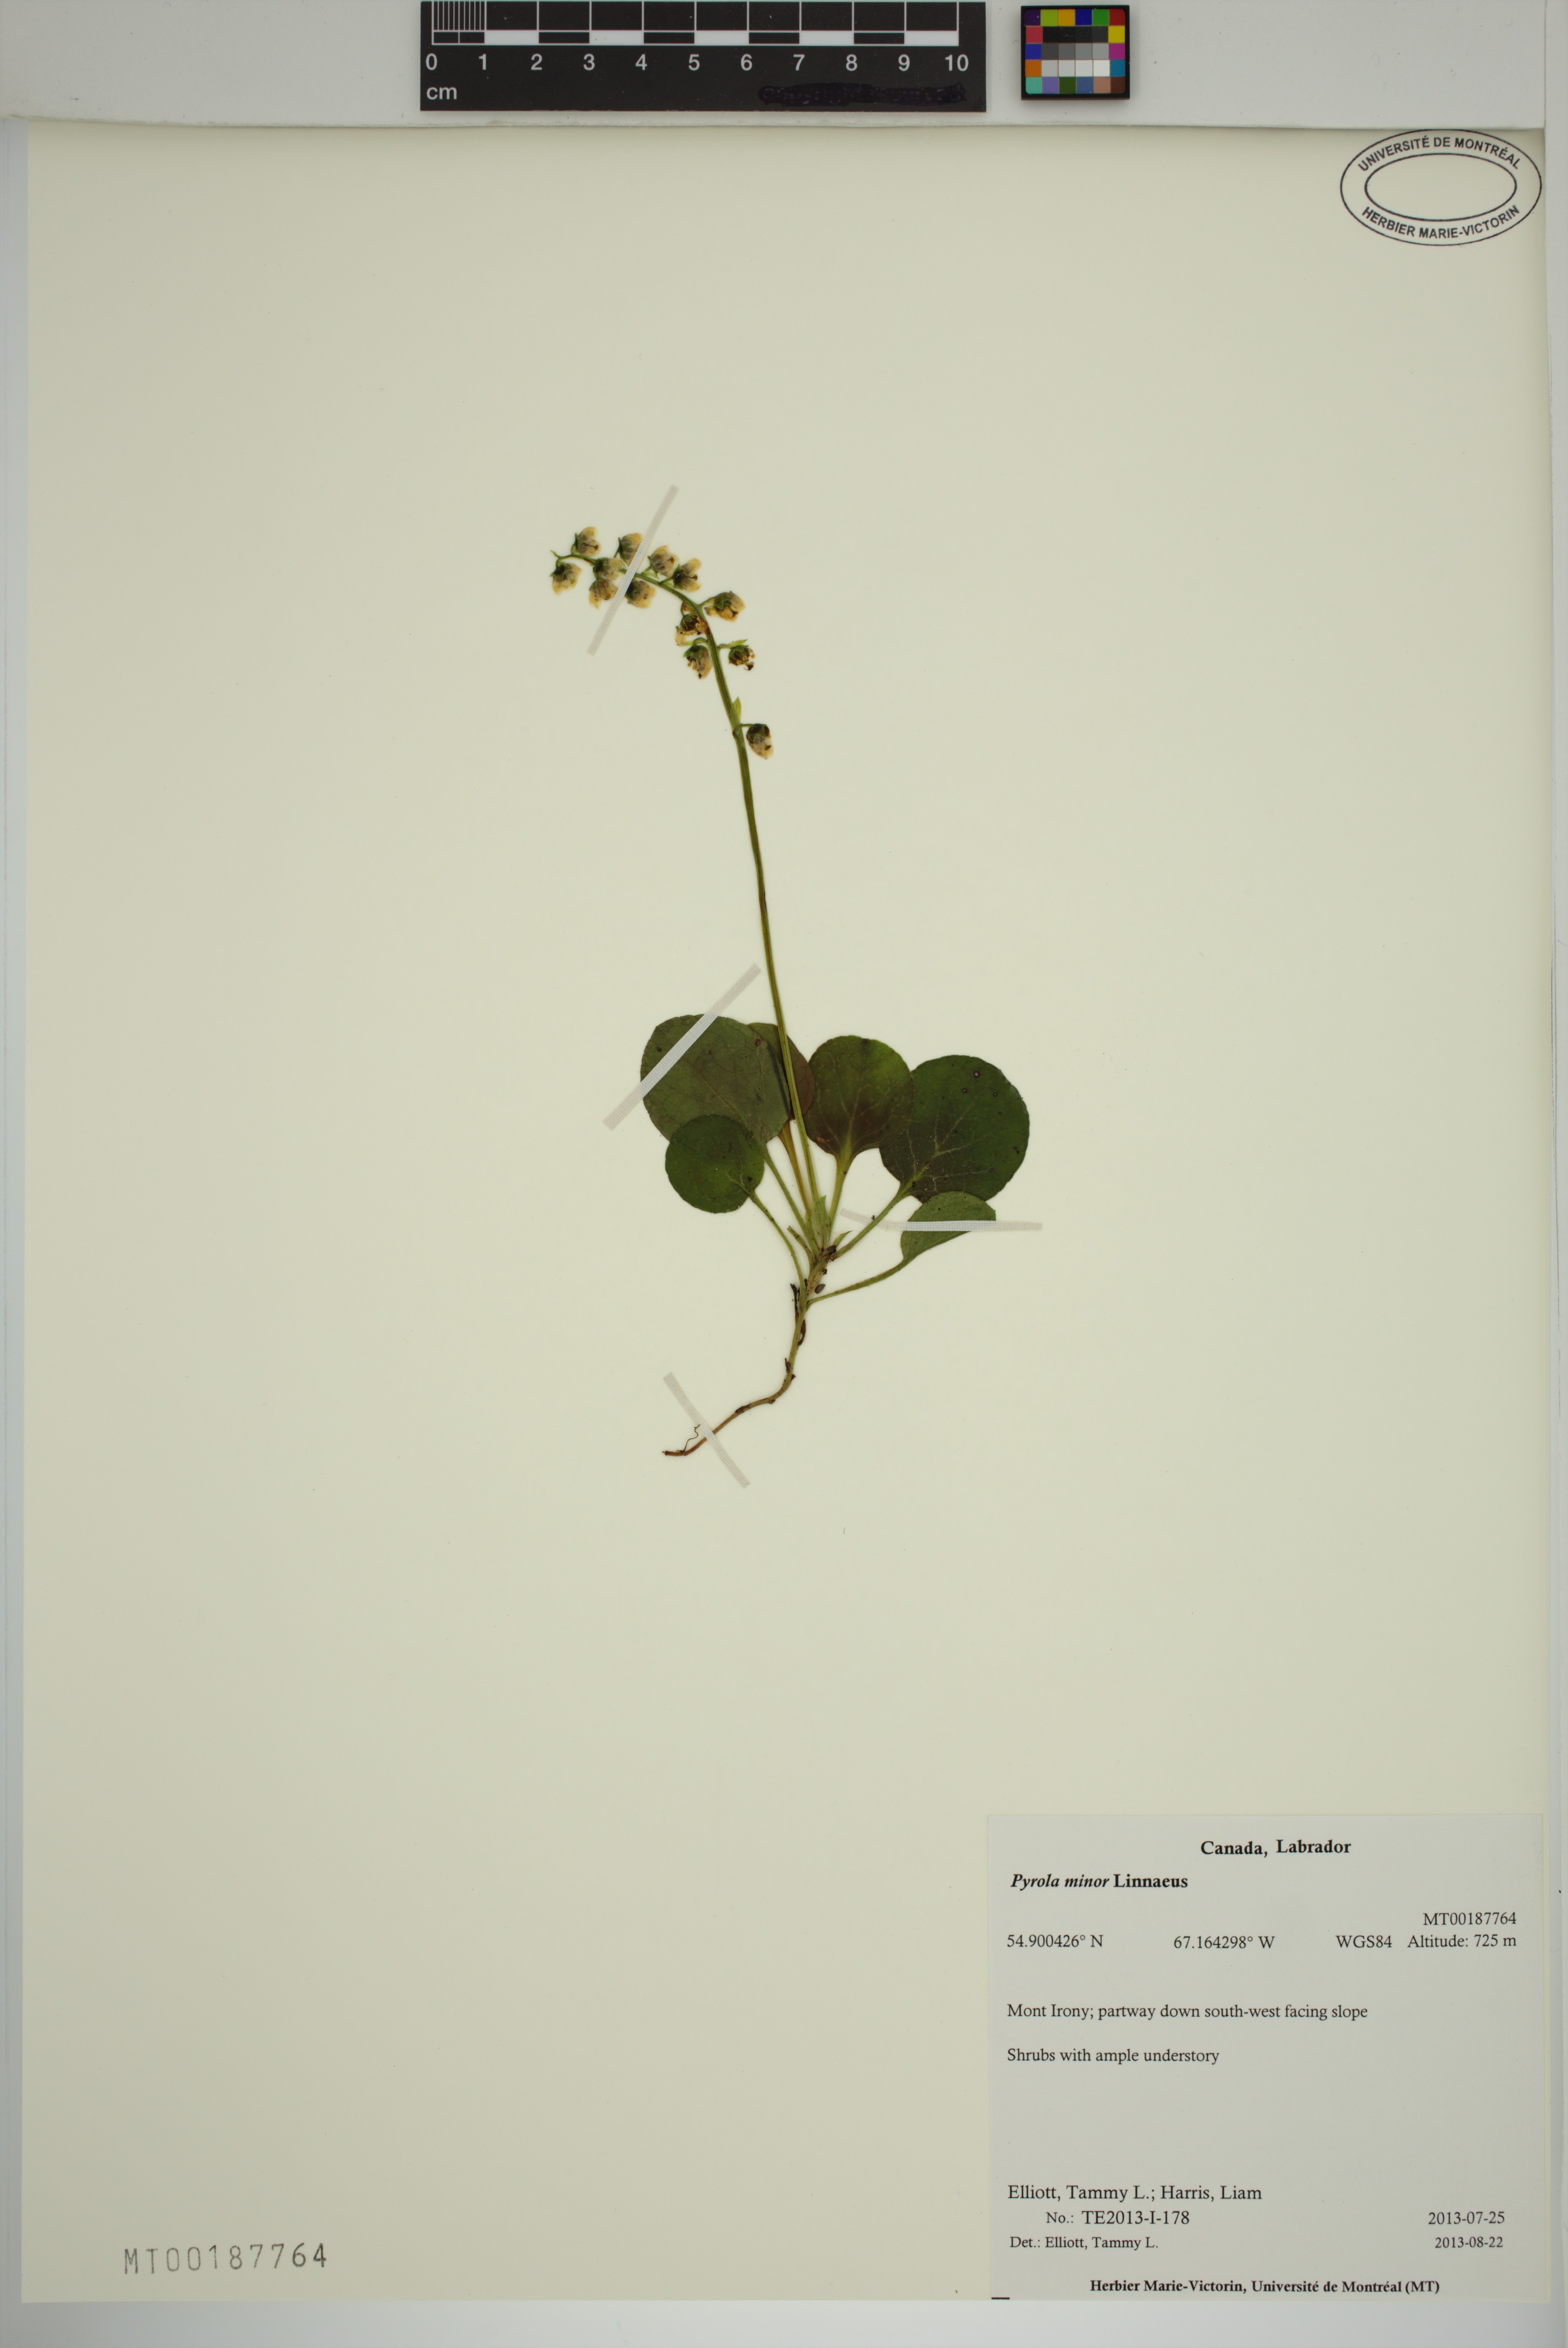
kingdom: Plantae
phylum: Tracheophyta
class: Magnoliopsida
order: Ericales
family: Ericaceae
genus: Pyrola
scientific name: Pyrola minor
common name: Common wintergreen
